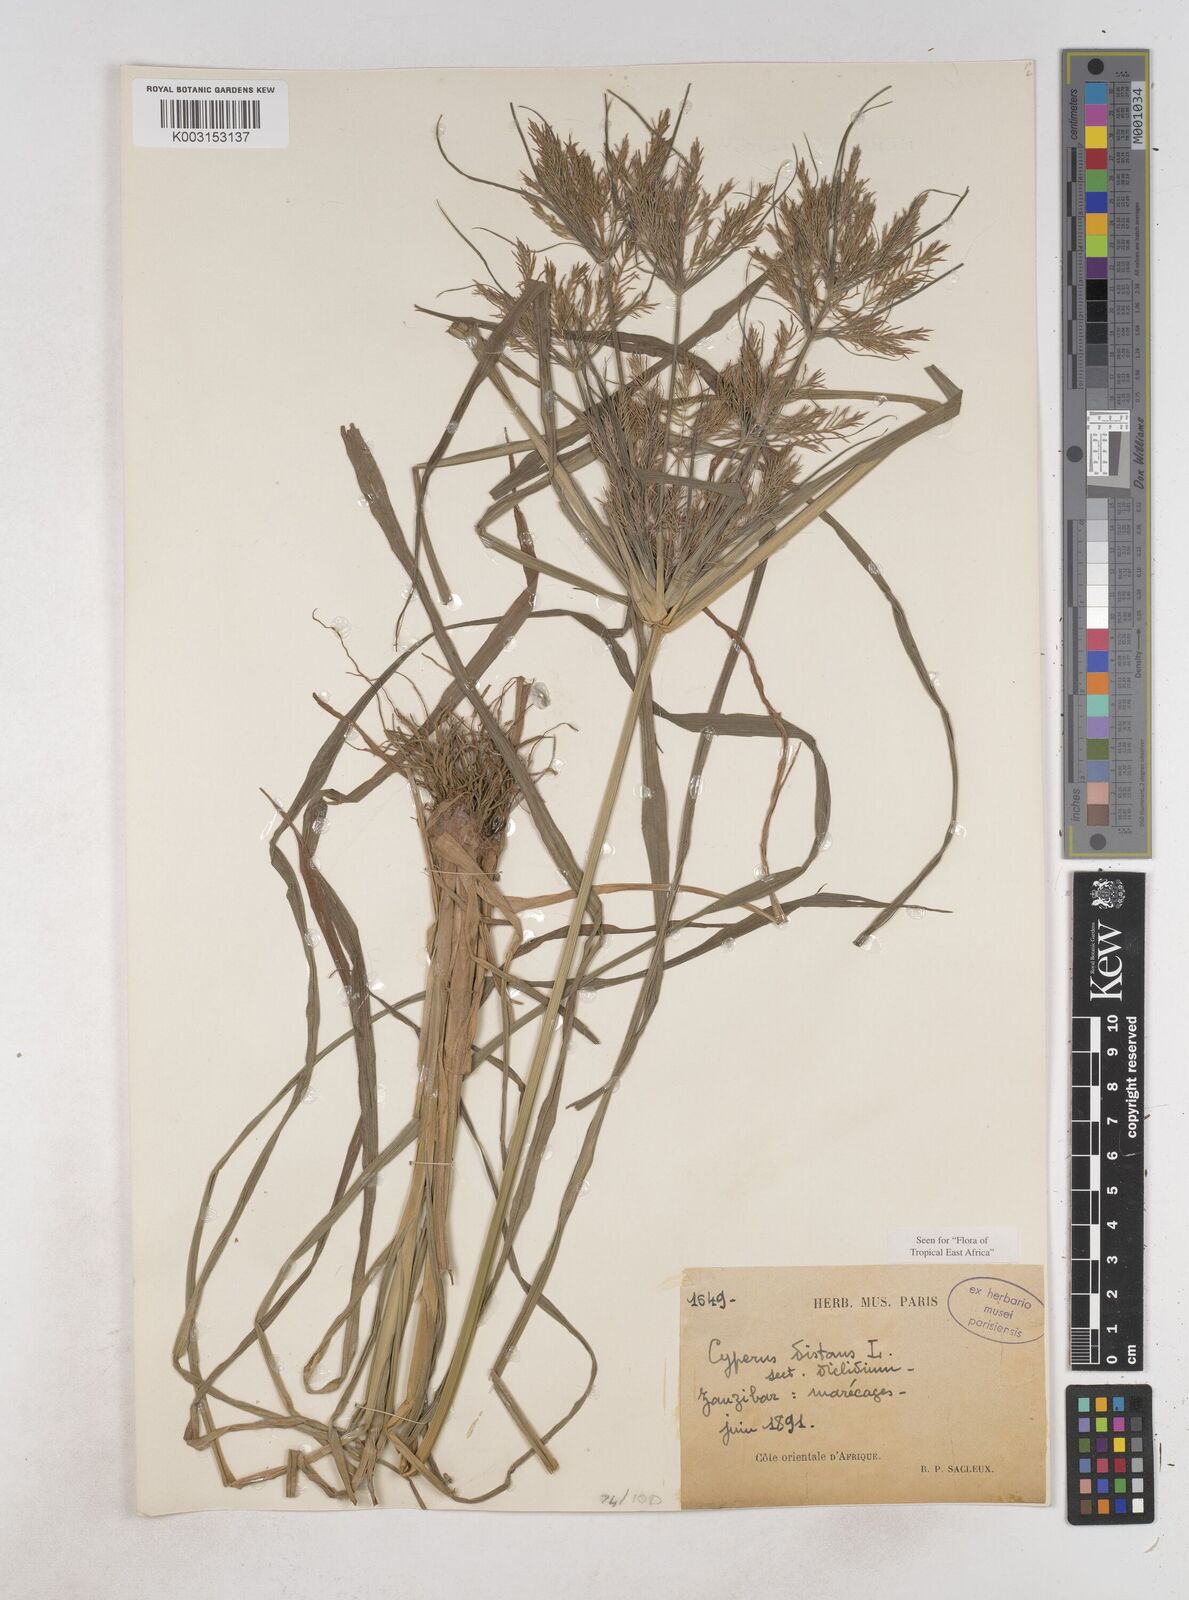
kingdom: Plantae
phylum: Tracheophyta
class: Liliopsida
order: Poales
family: Cyperaceae
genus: Cyperus
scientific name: Cyperus distans
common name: Slender cyperus
